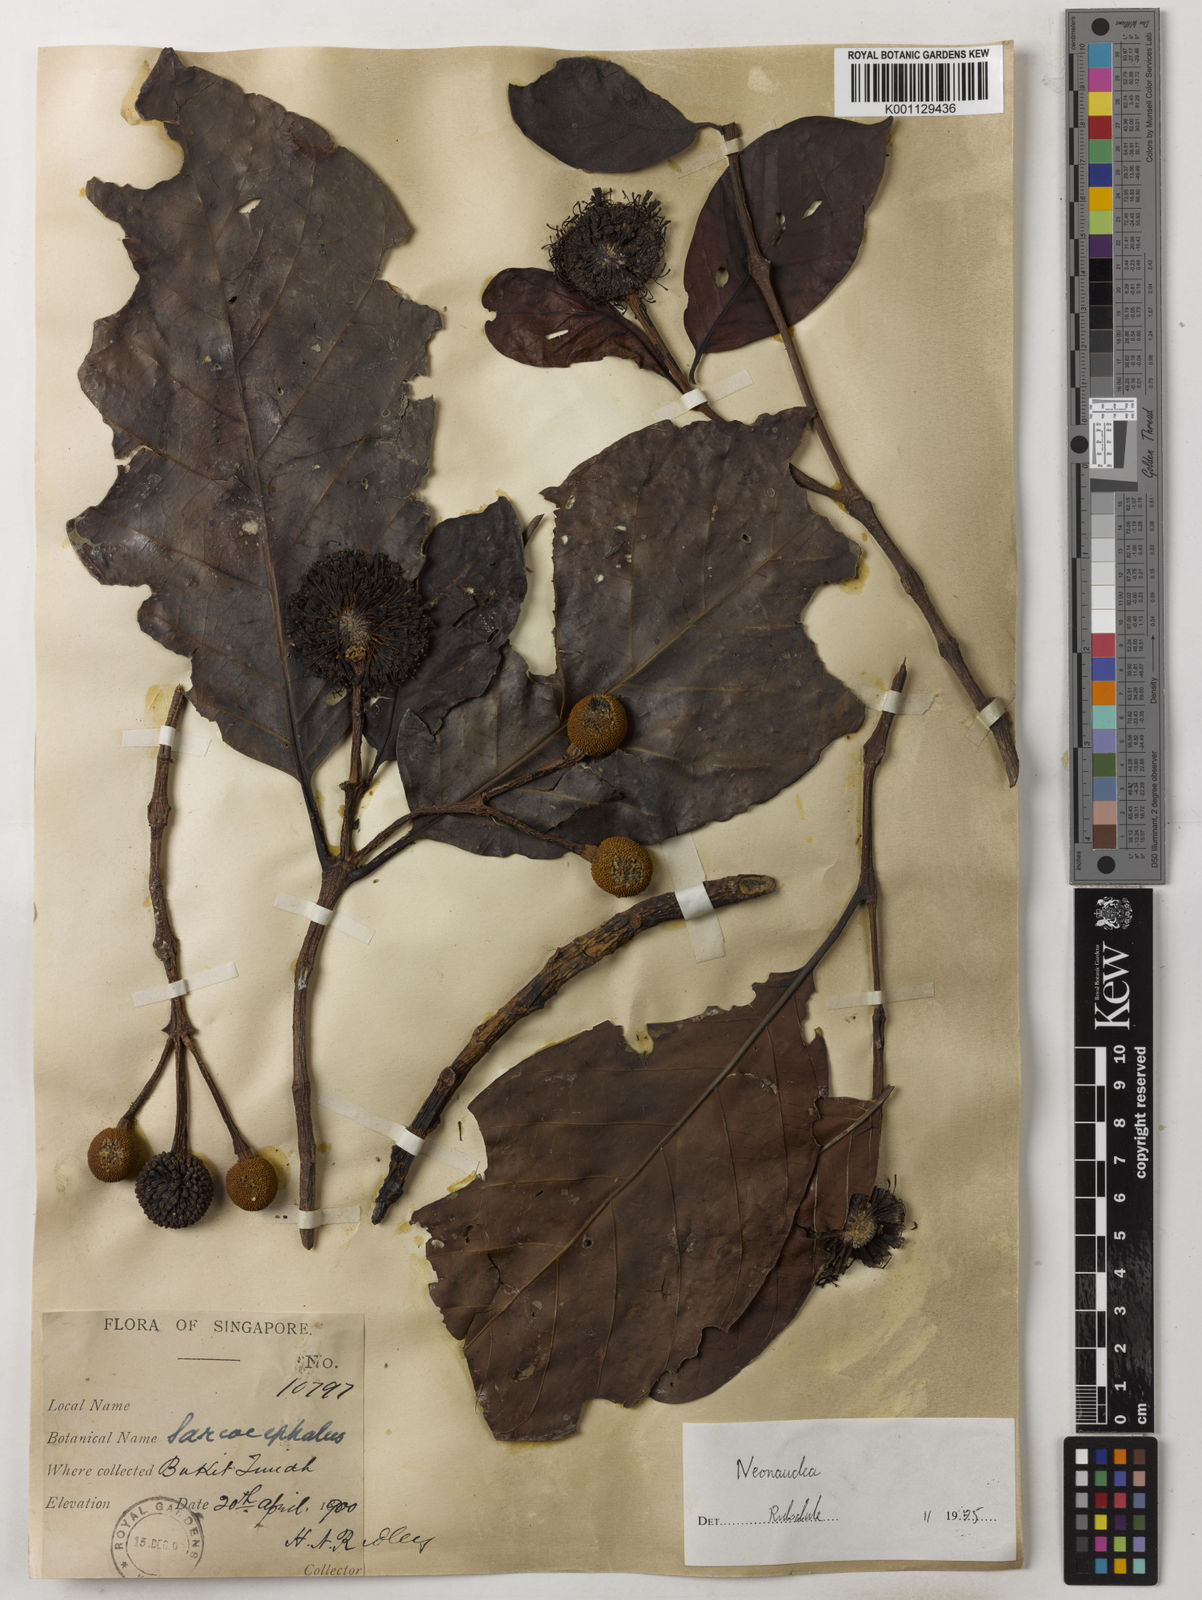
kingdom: Plantae
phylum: Tracheophyta
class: Magnoliopsida
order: Gentianales
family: Rubiaceae
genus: Neonauclea
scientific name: Neonauclea calycina
